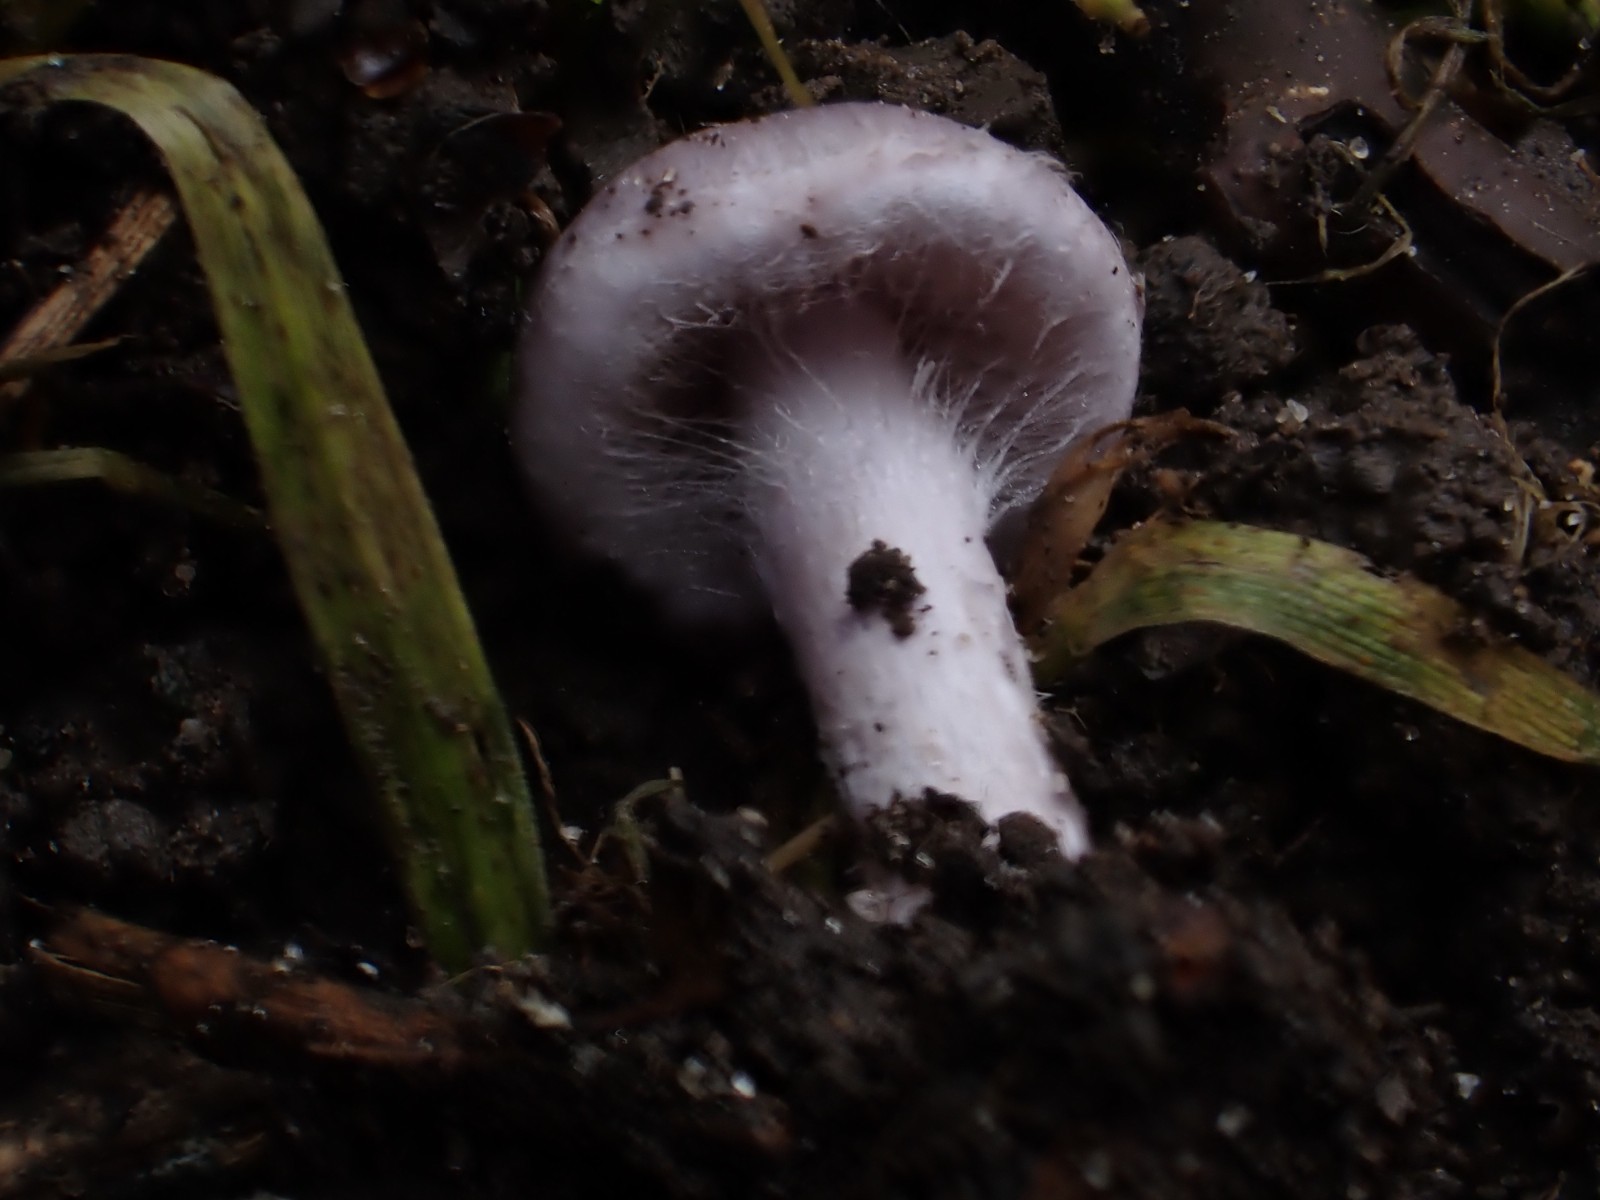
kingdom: Fungi
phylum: Basidiomycota
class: Agaricomycetes
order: Agaricales
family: Inocybaceae
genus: Inocybe
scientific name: Inocybe aphroditeana
